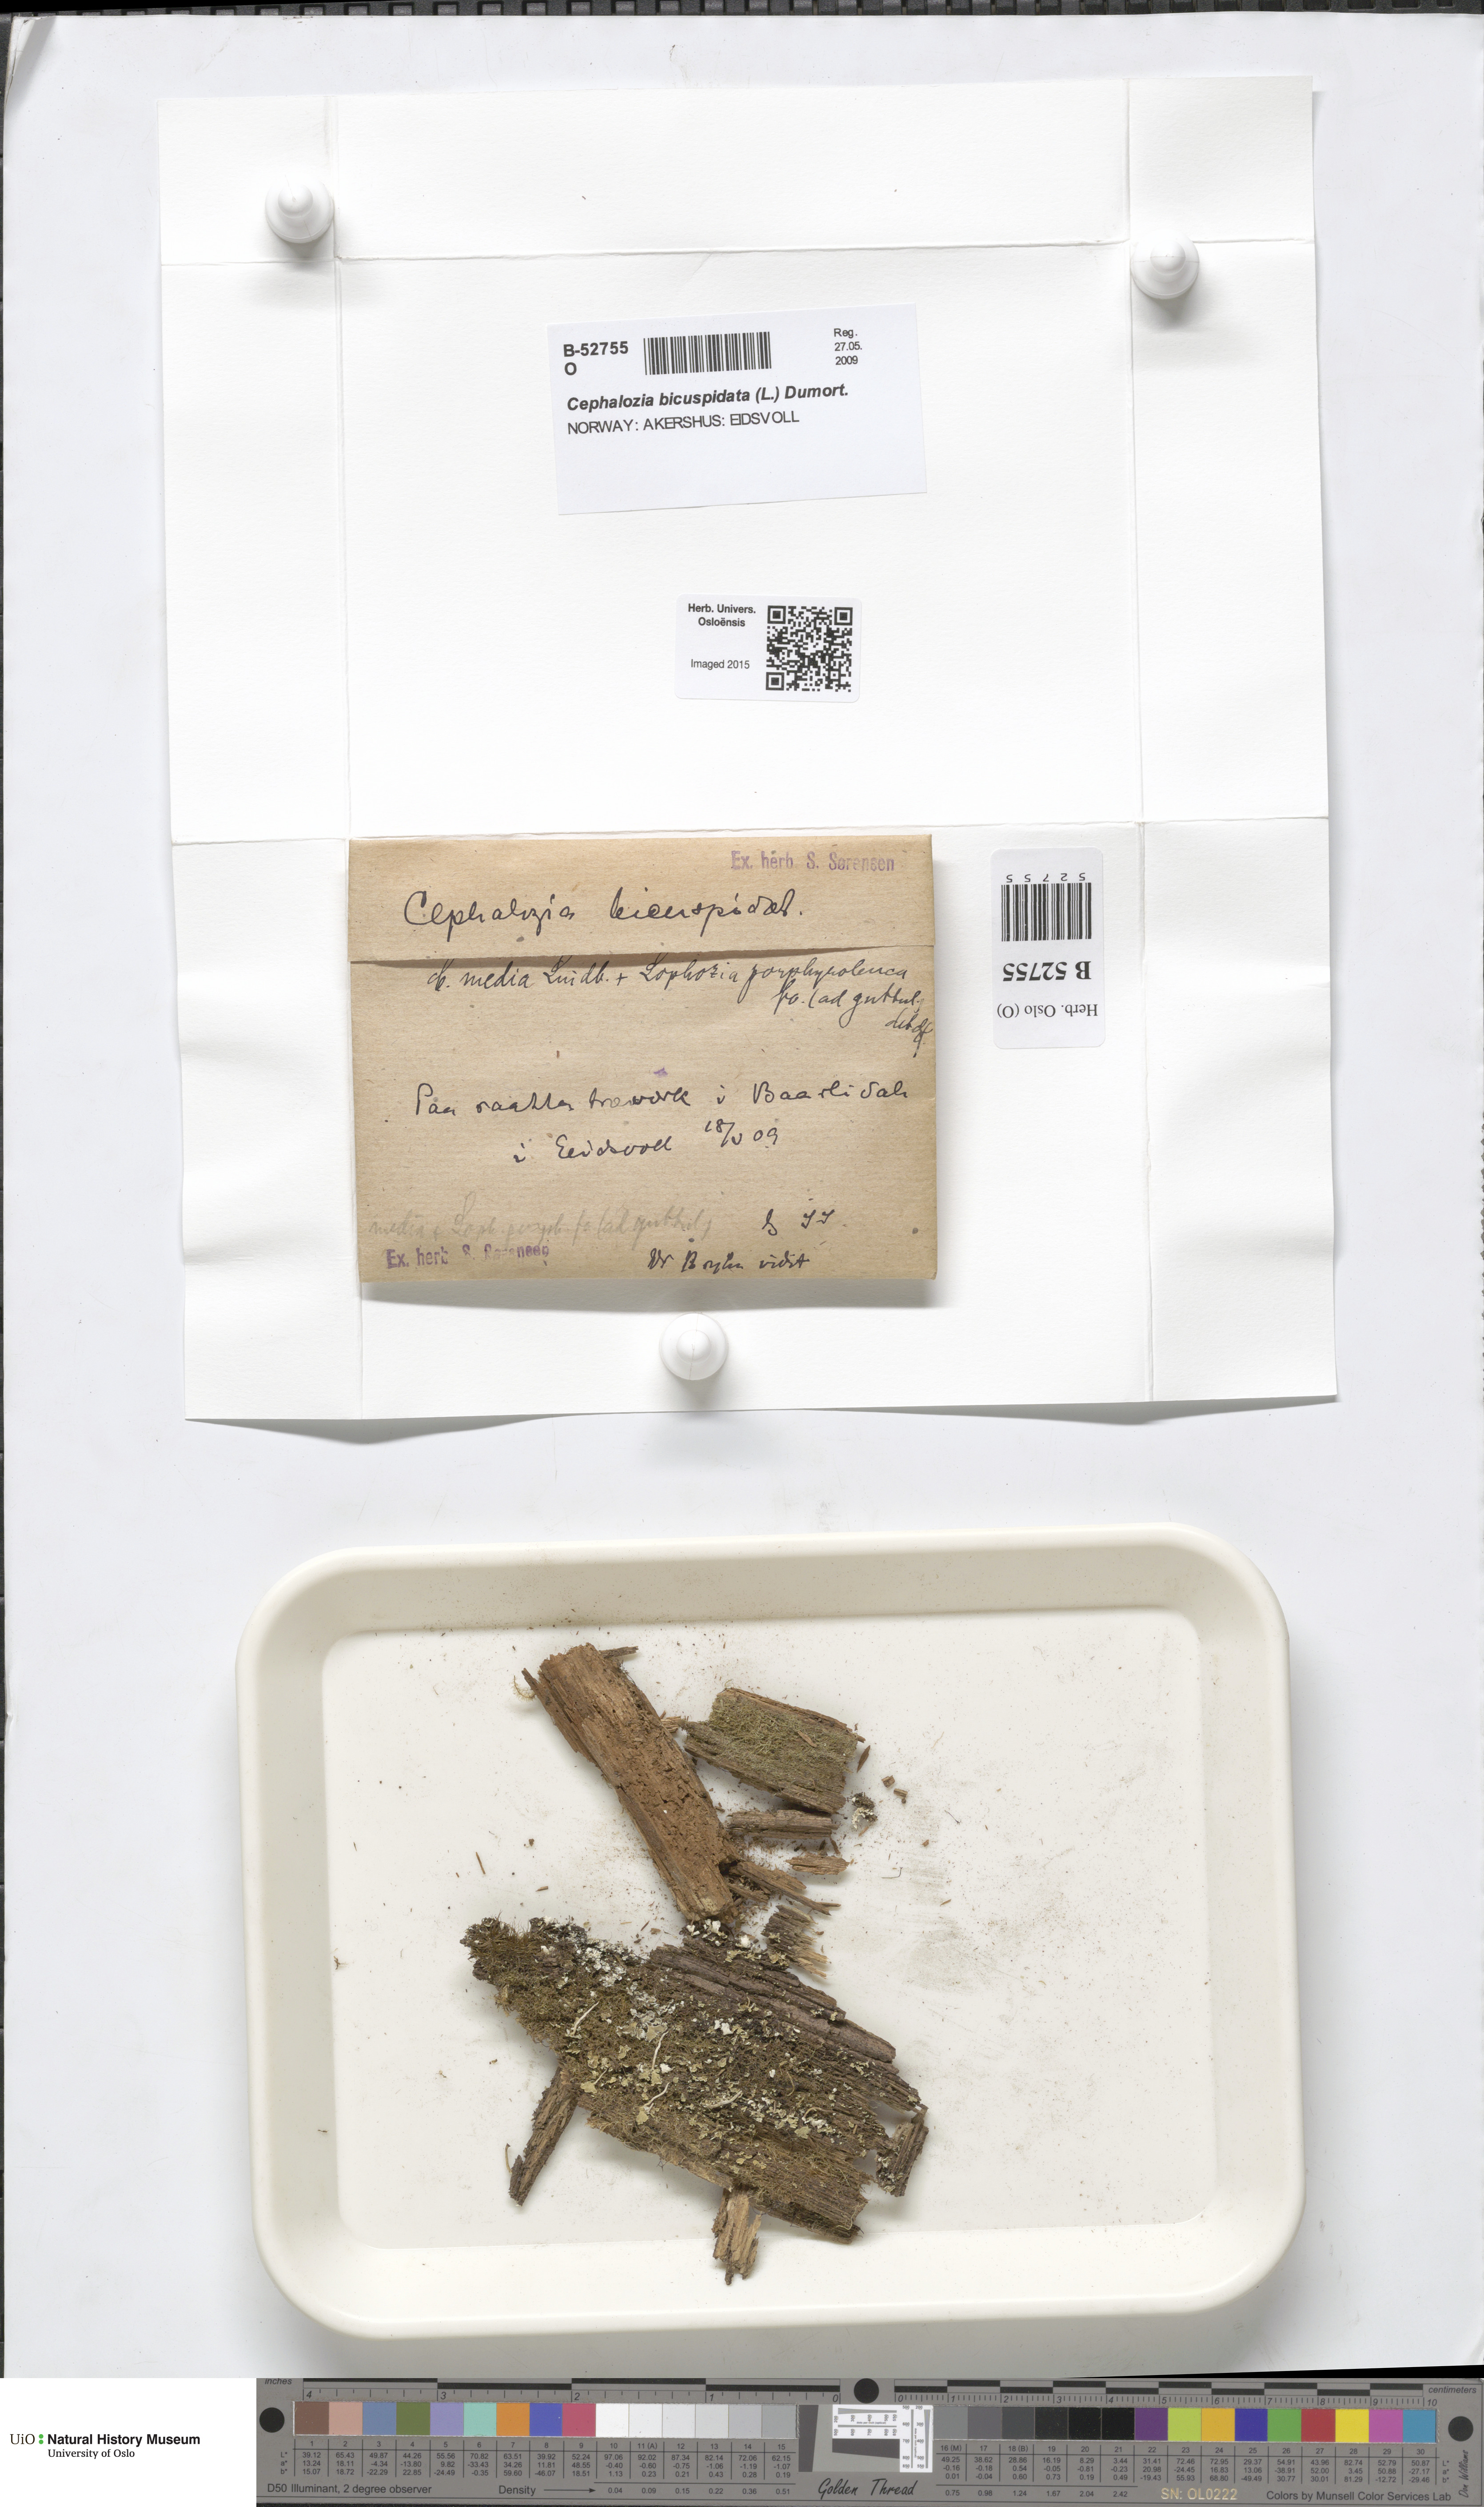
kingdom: Plantae
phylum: Marchantiophyta
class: Jungermanniopsida
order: Jungermanniales
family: Cephaloziaceae
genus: Cephalozia
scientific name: Cephalozia bicuspidata
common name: Two-horned pincerwort
